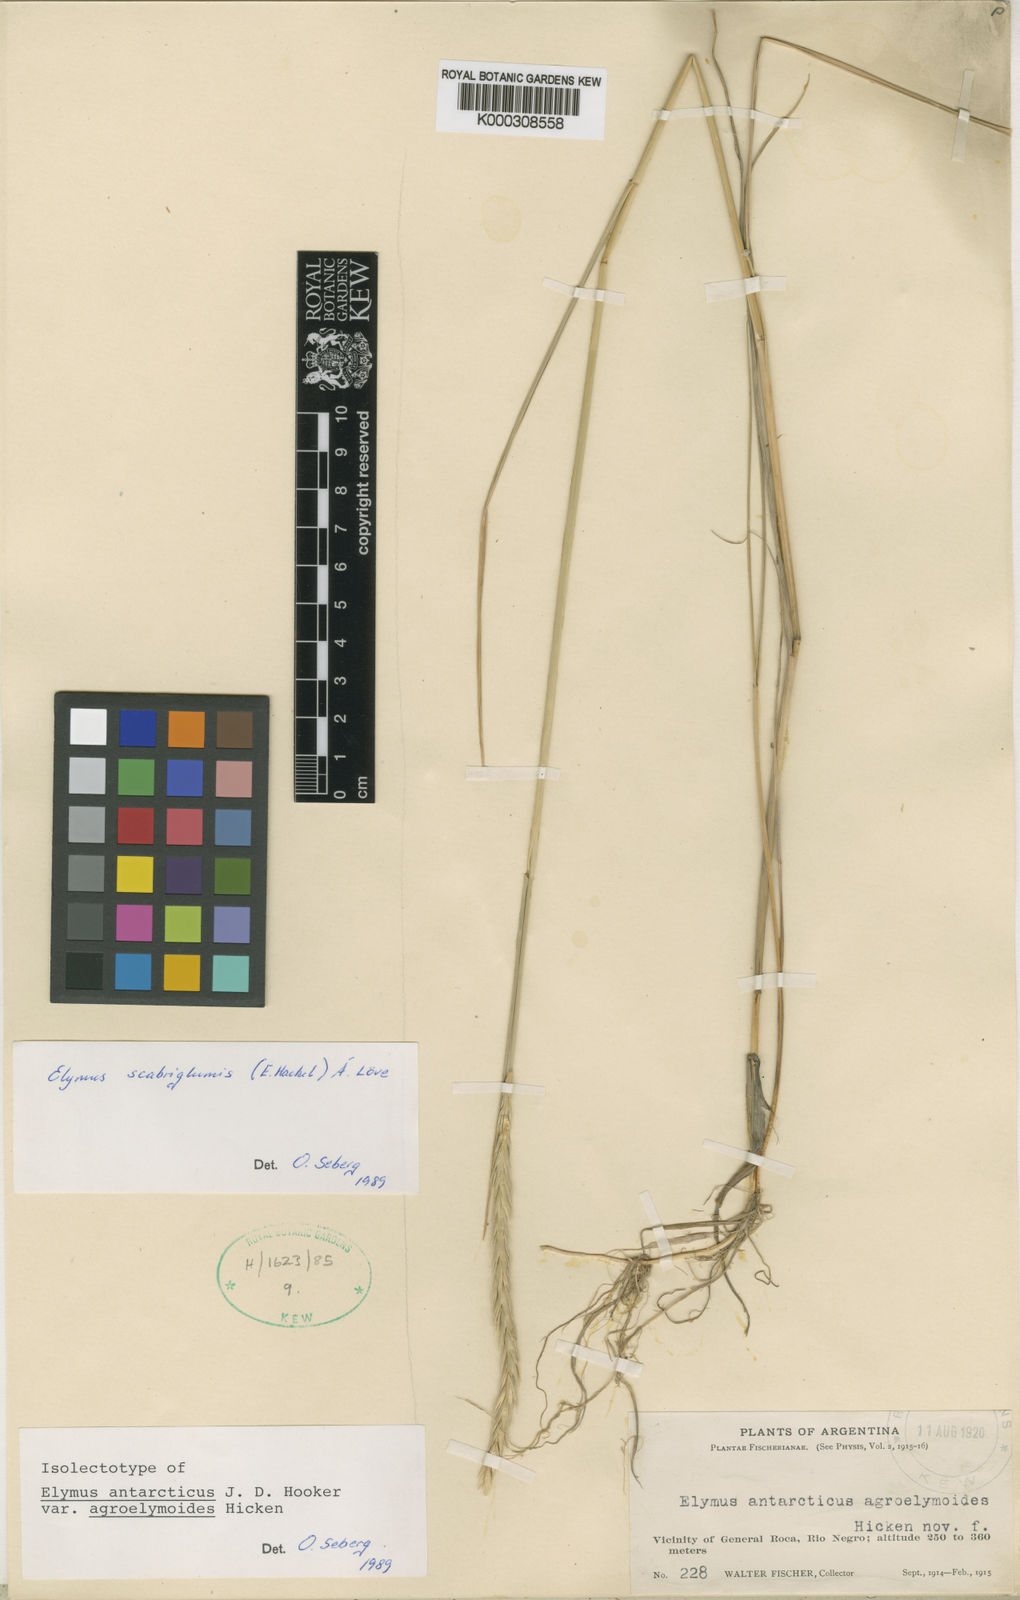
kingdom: Plantae
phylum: Tracheophyta
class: Liliopsida
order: Poales
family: Poaceae
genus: Elymus
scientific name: Elymus
